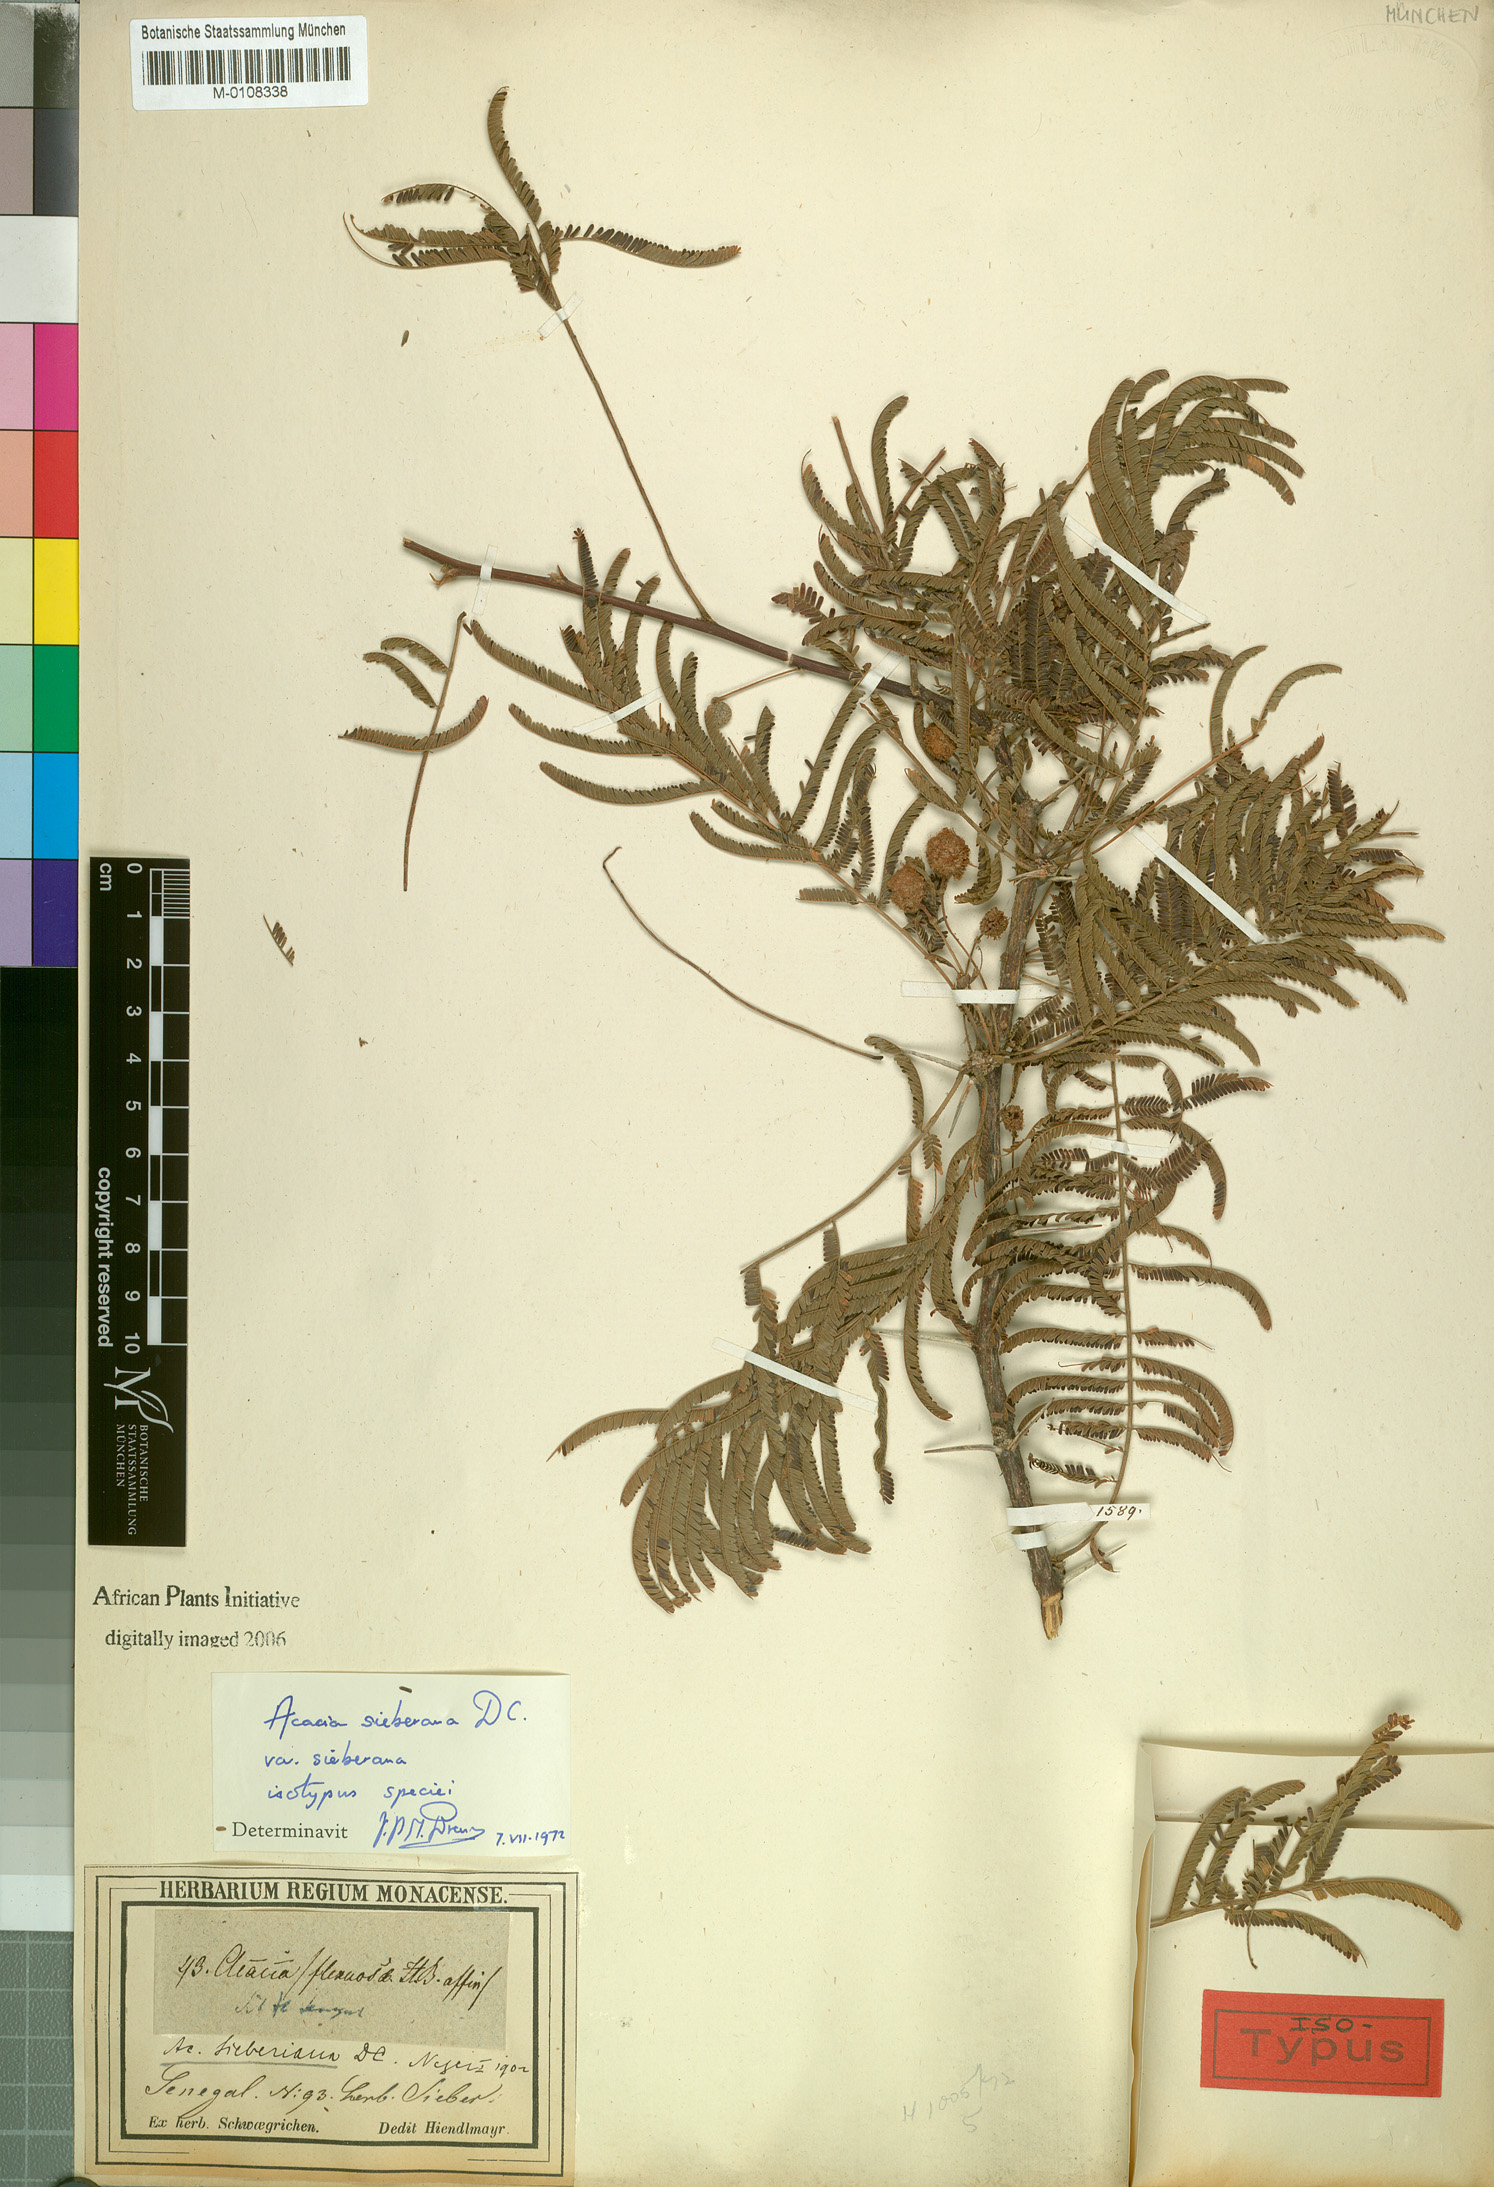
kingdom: Plantae
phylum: Tracheophyta
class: Magnoliopsida
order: Fabales
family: Fabaceae
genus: Vachellia
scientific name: Vachellia sieberiana
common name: Flat-topped thorn
